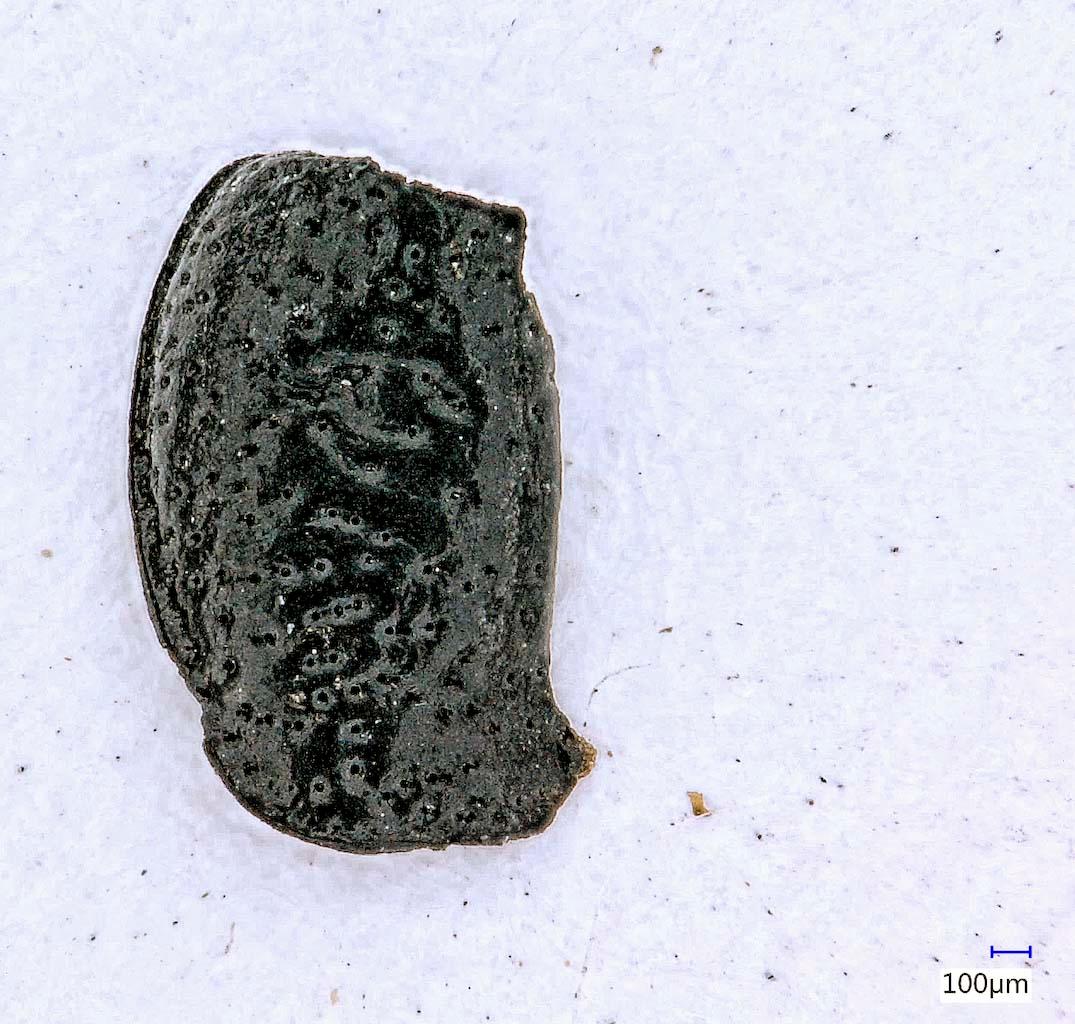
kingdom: Animalia
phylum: Arthropoda
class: Insecta
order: Coleoptera
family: Carabidae
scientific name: Carabidae
